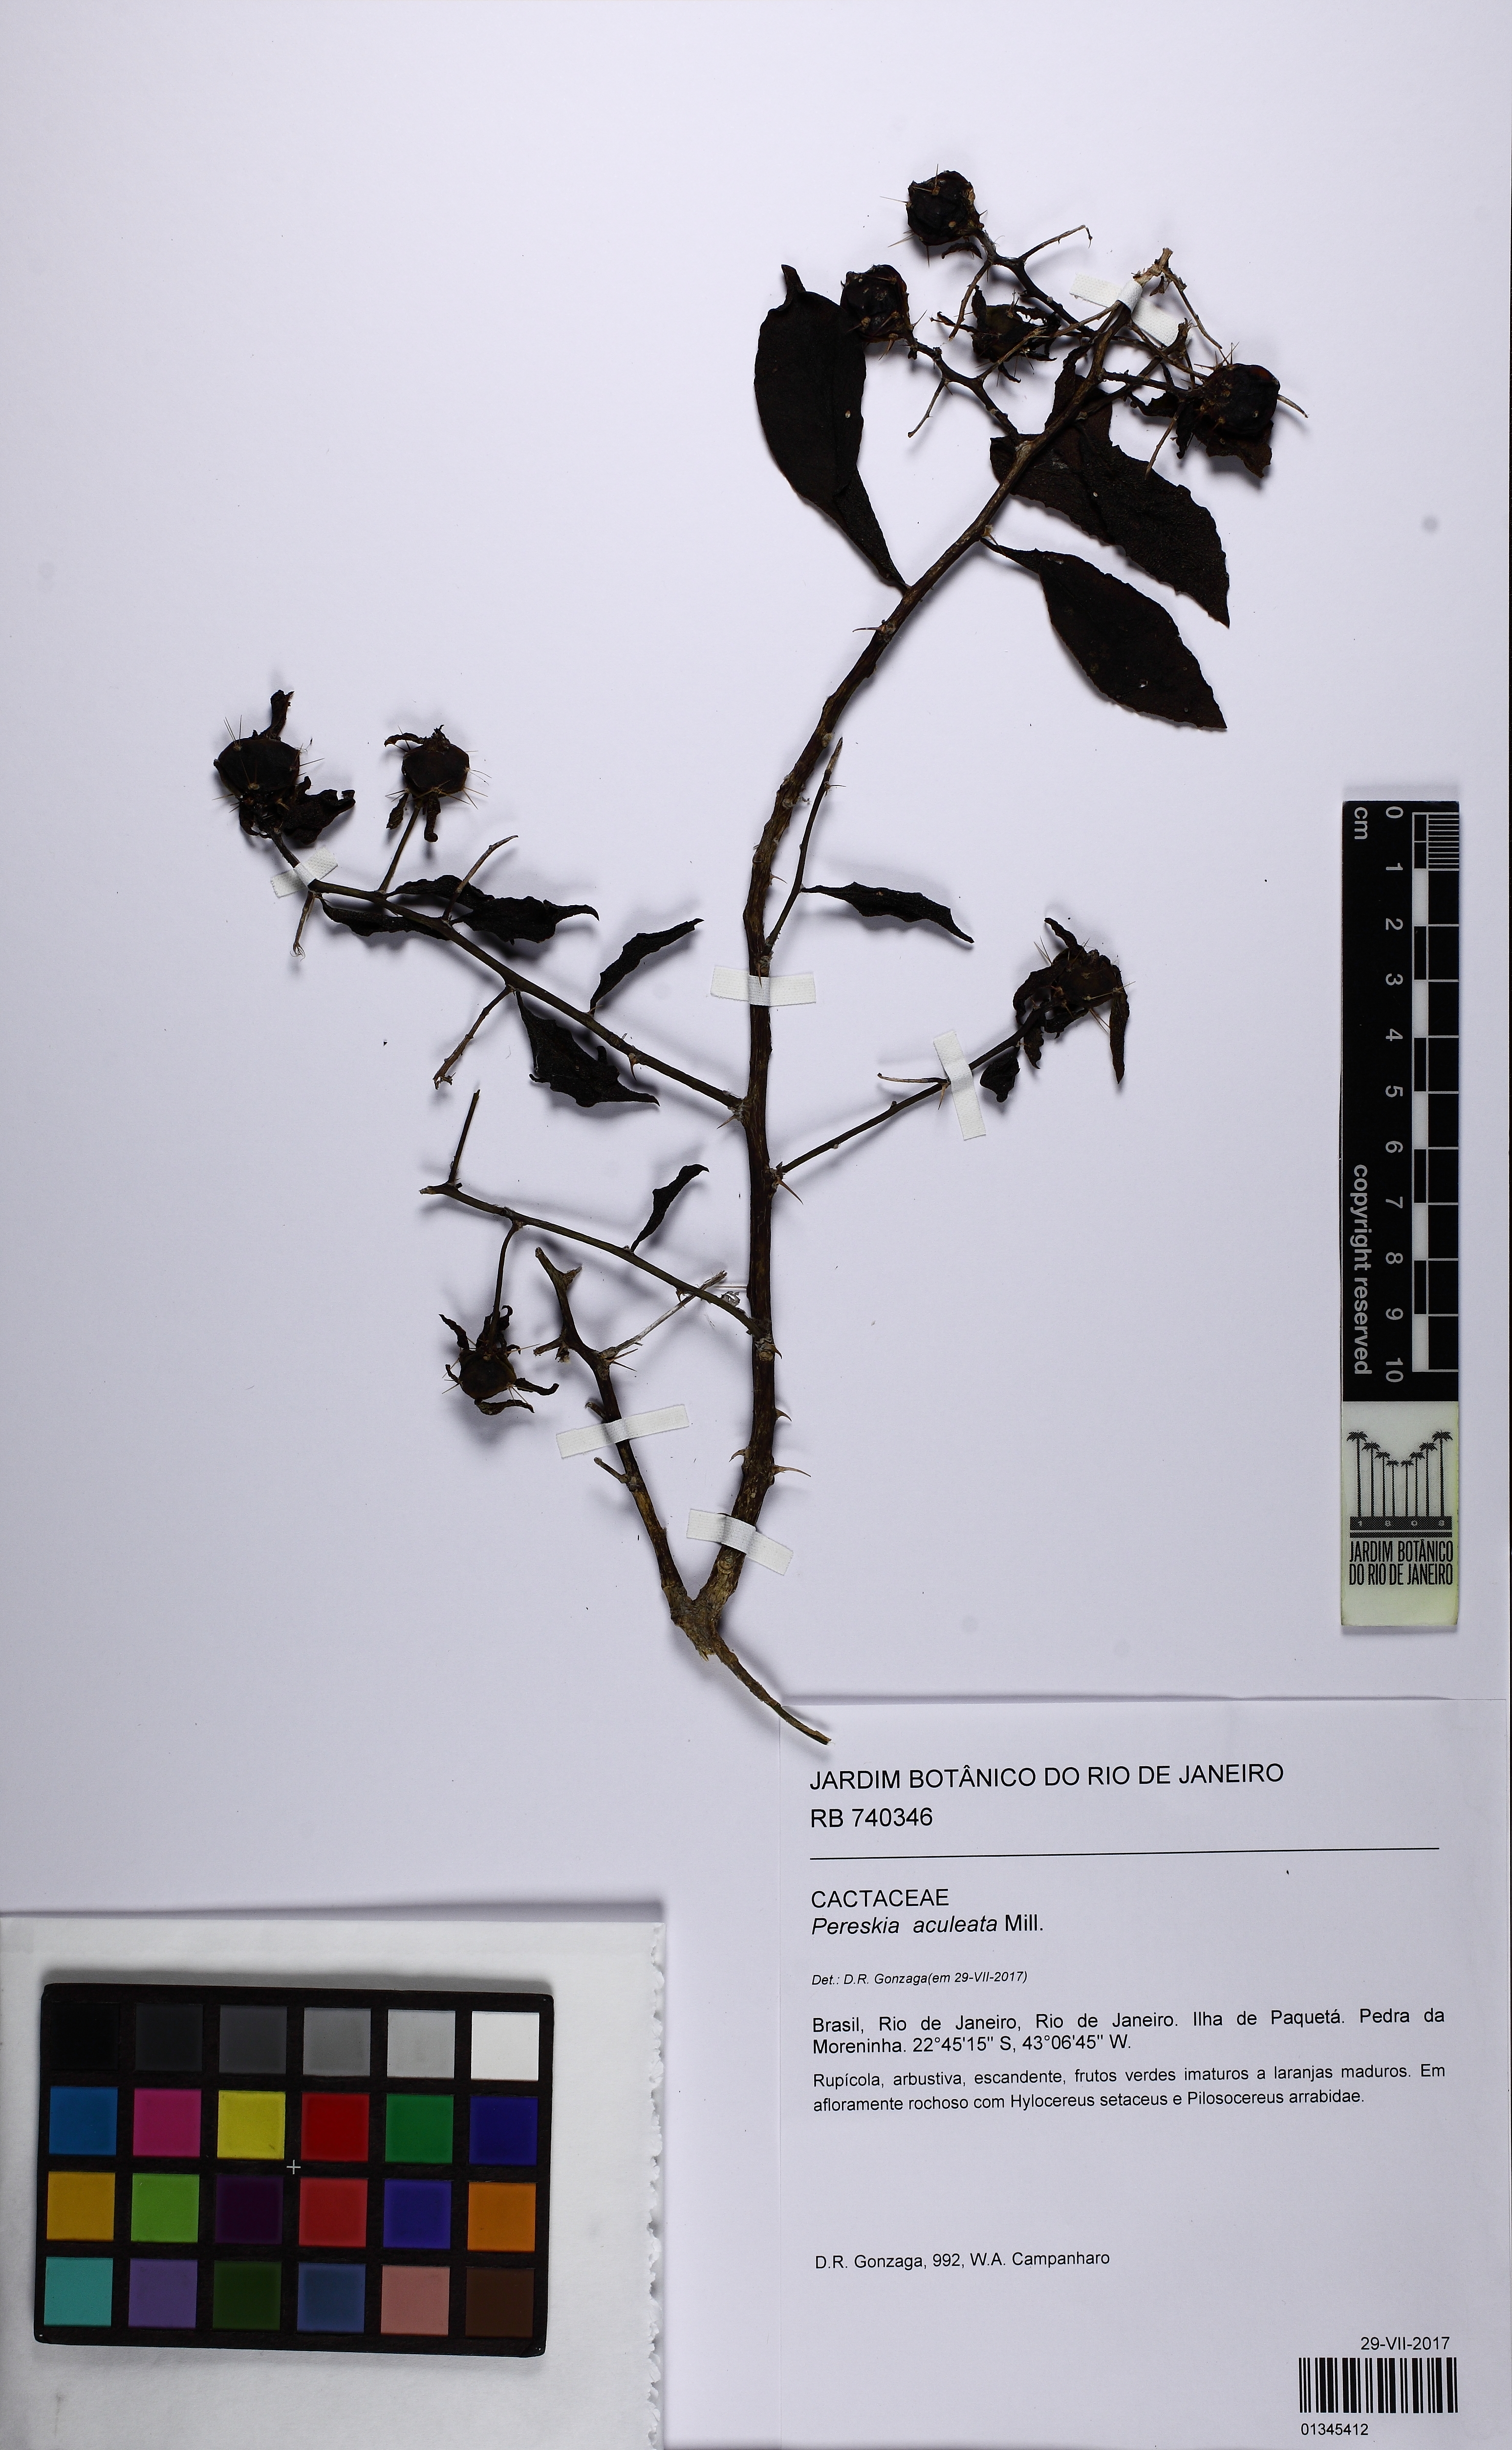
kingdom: Plantae
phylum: Tracheophyta
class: Magnoliopsida
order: Caryophyllales
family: Cactaceae
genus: Pereskia
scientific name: Pereskia aculeata
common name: Barbados gooseberry
